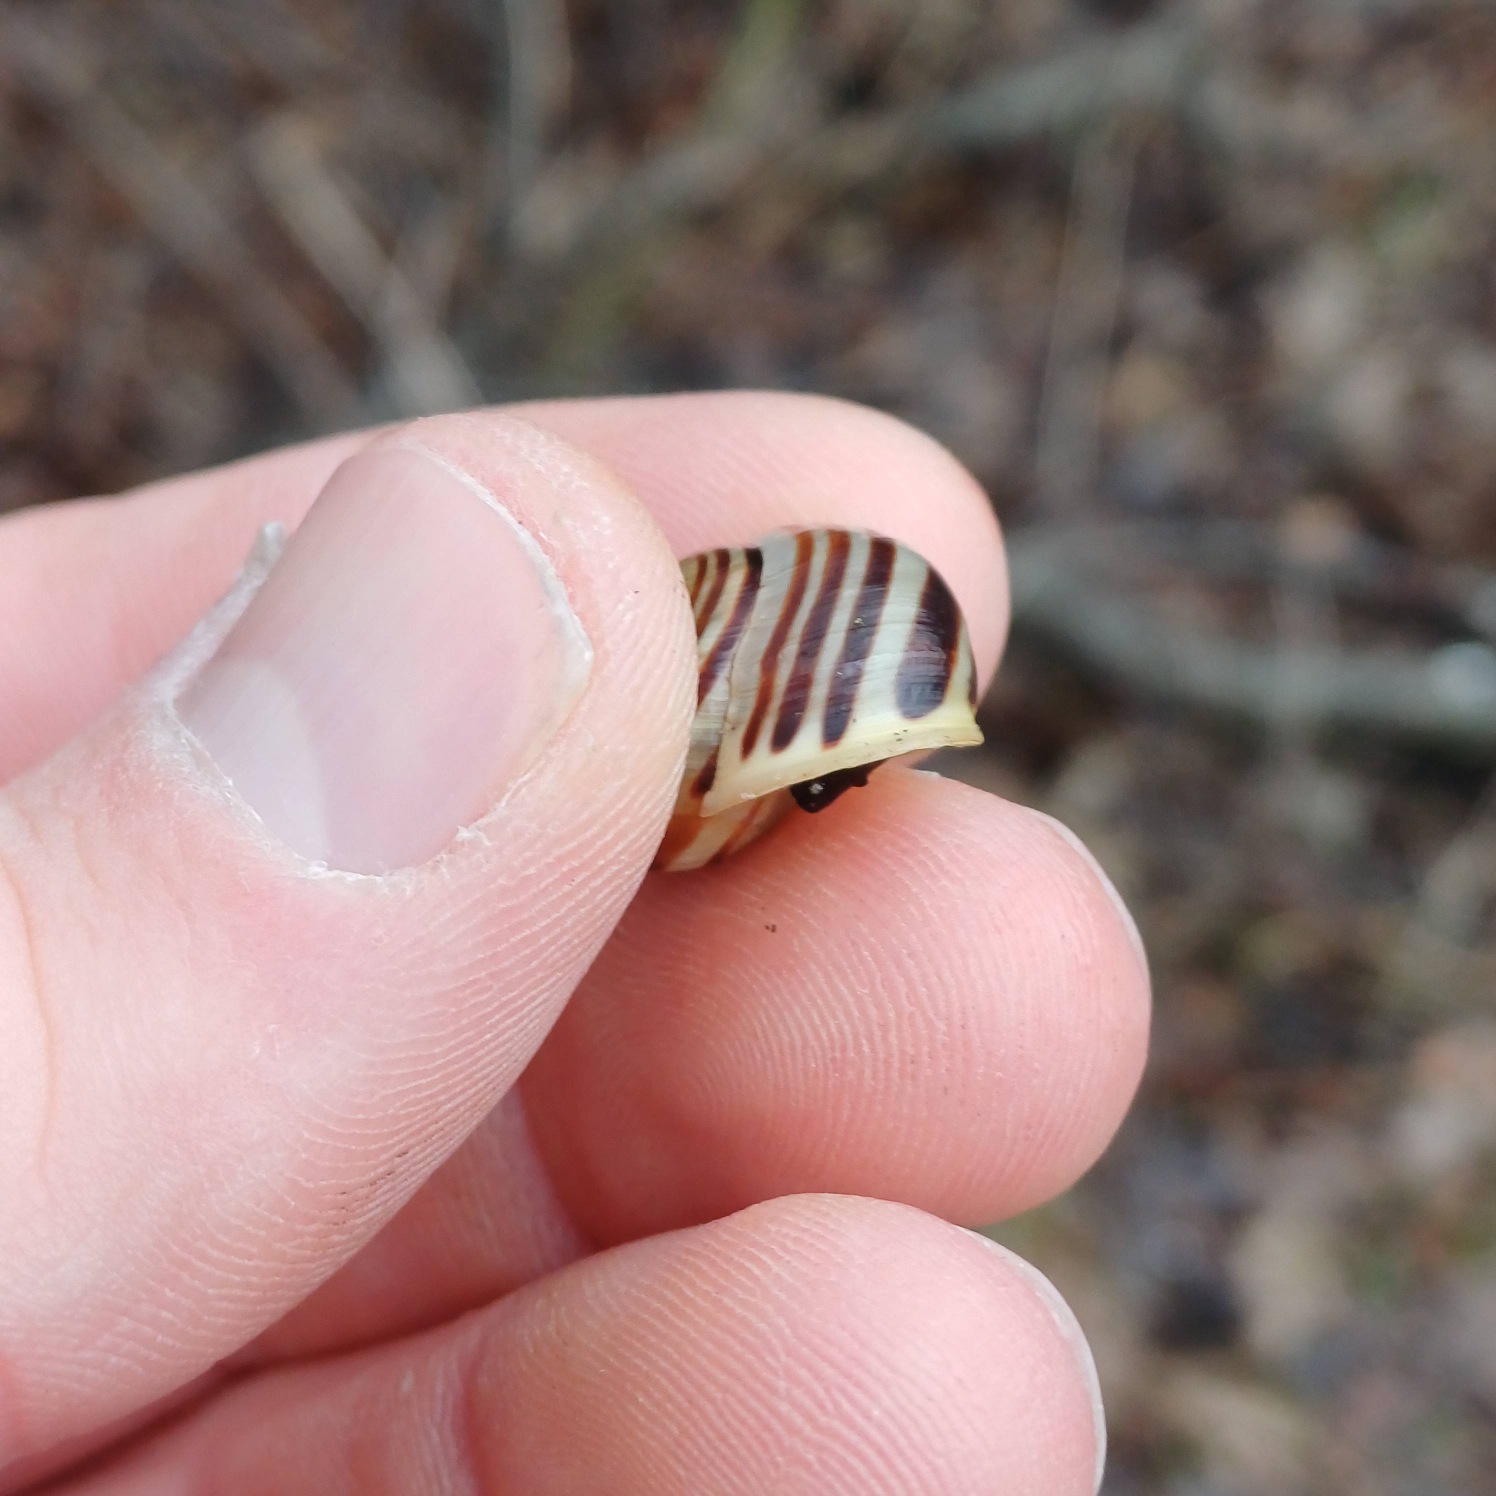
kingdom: Animalia
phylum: Mollusca
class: Gastropoda
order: Stylommatophora
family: Helicidae
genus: Cepaea
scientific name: Cepaea hortensis
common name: Havesnegl
